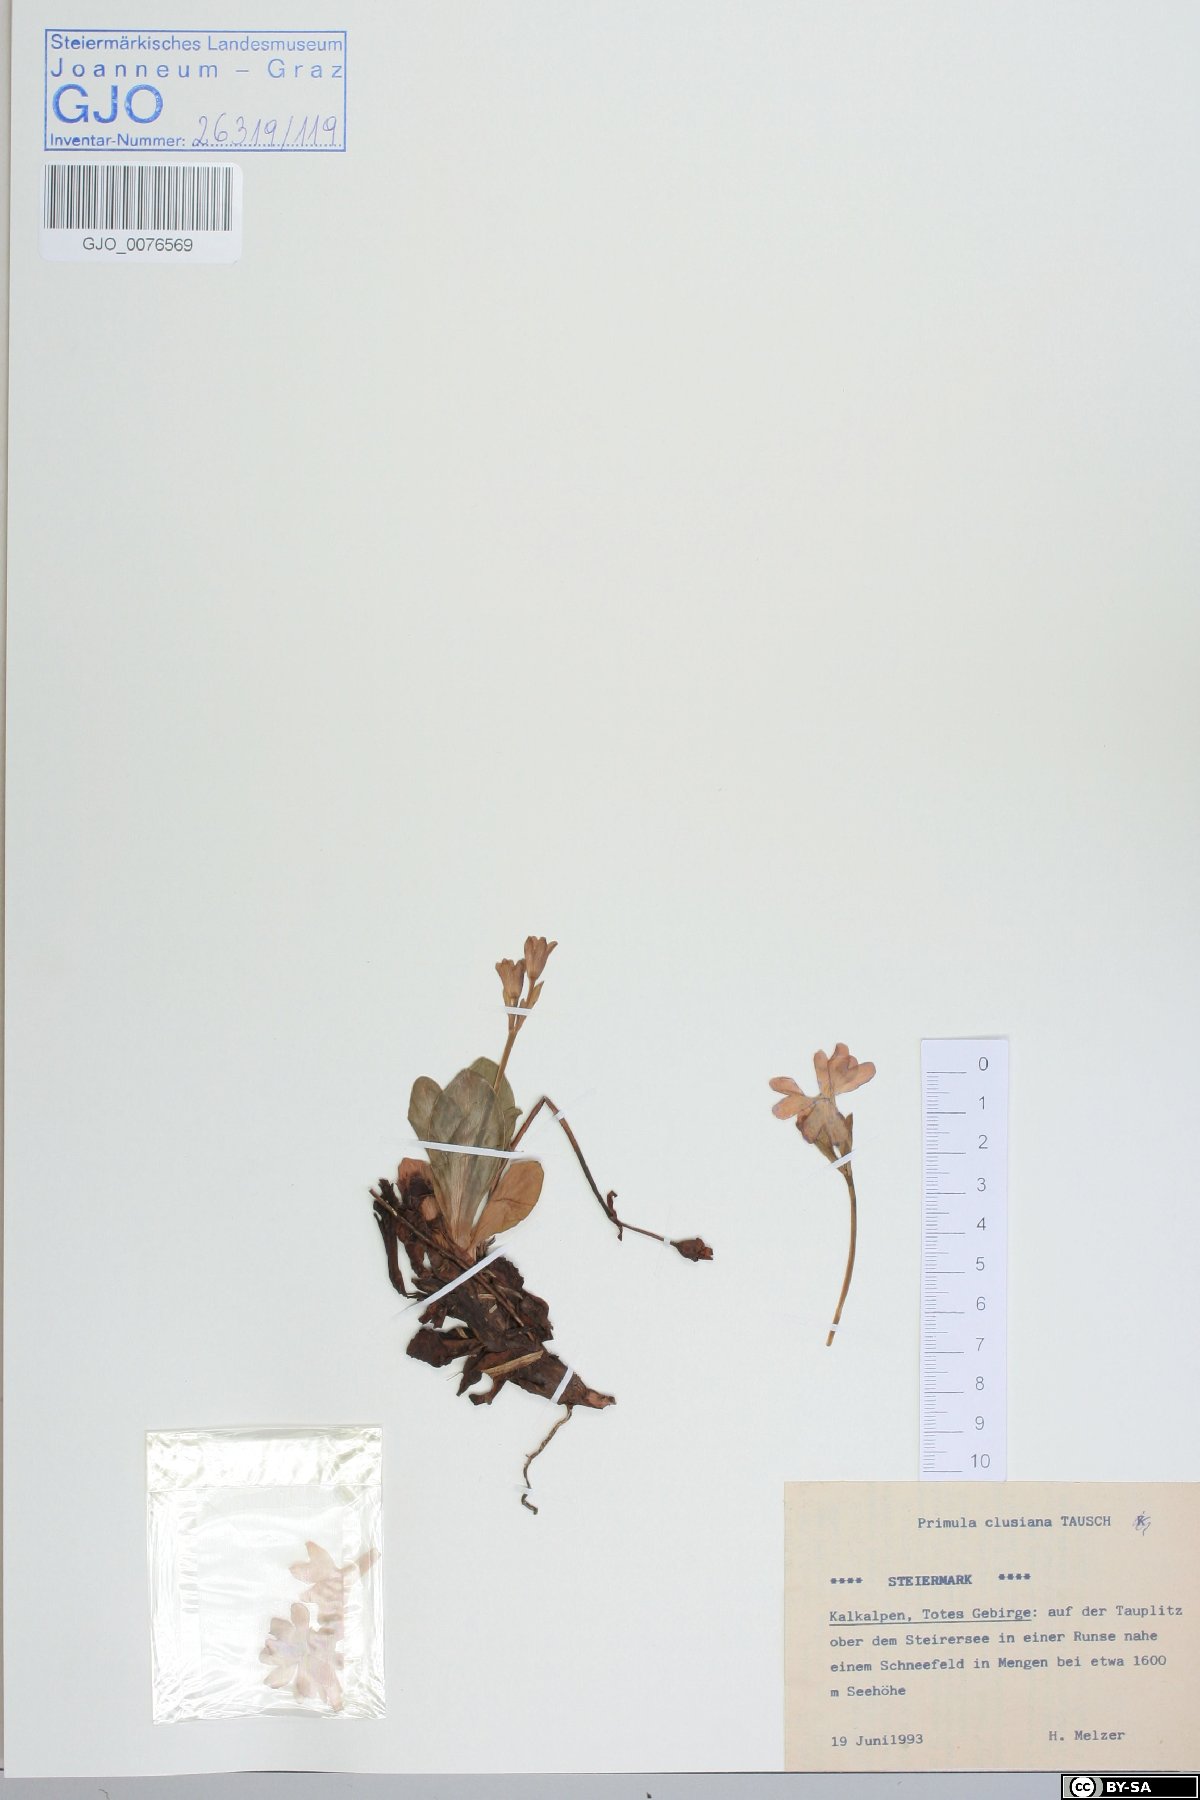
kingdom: Plantae
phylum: Tracheophyta
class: Magnoliopsida
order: Ericales
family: Primulaceae
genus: Primula
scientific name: Primula clusiana
